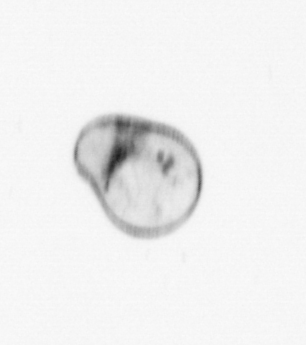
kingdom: Chromista
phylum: Myzozoa
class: Dinophyceae
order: Noctilucales
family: Noctilucaceae
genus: Noctiluca
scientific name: Noctiluca scintillans
